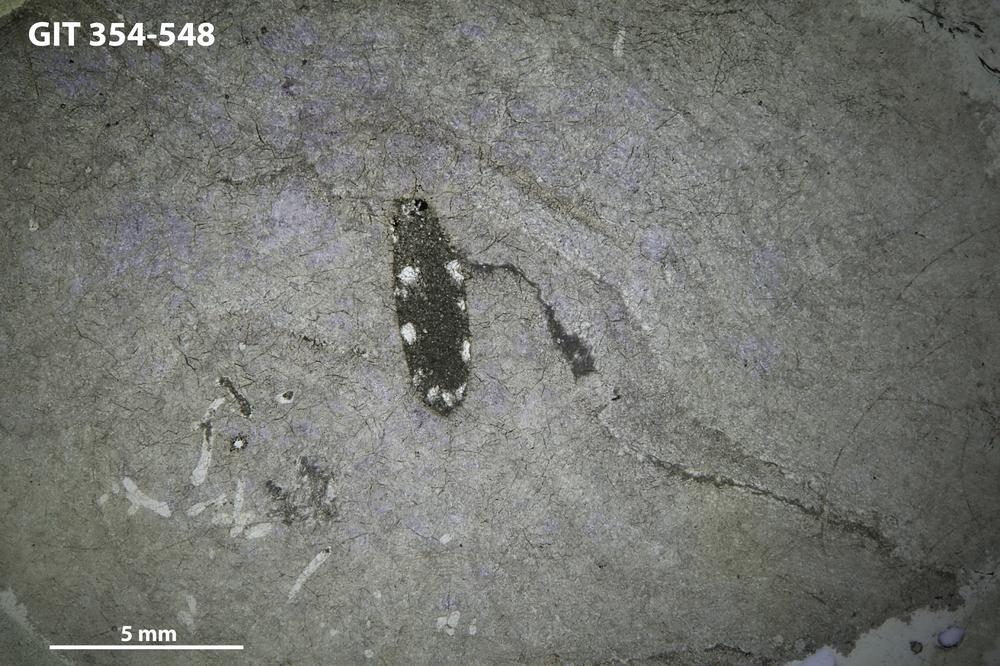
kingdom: Animalia
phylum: Porifera
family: Clathrodictyidae
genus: Clathrodictyon
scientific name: Clathrodictyon delicatulum
